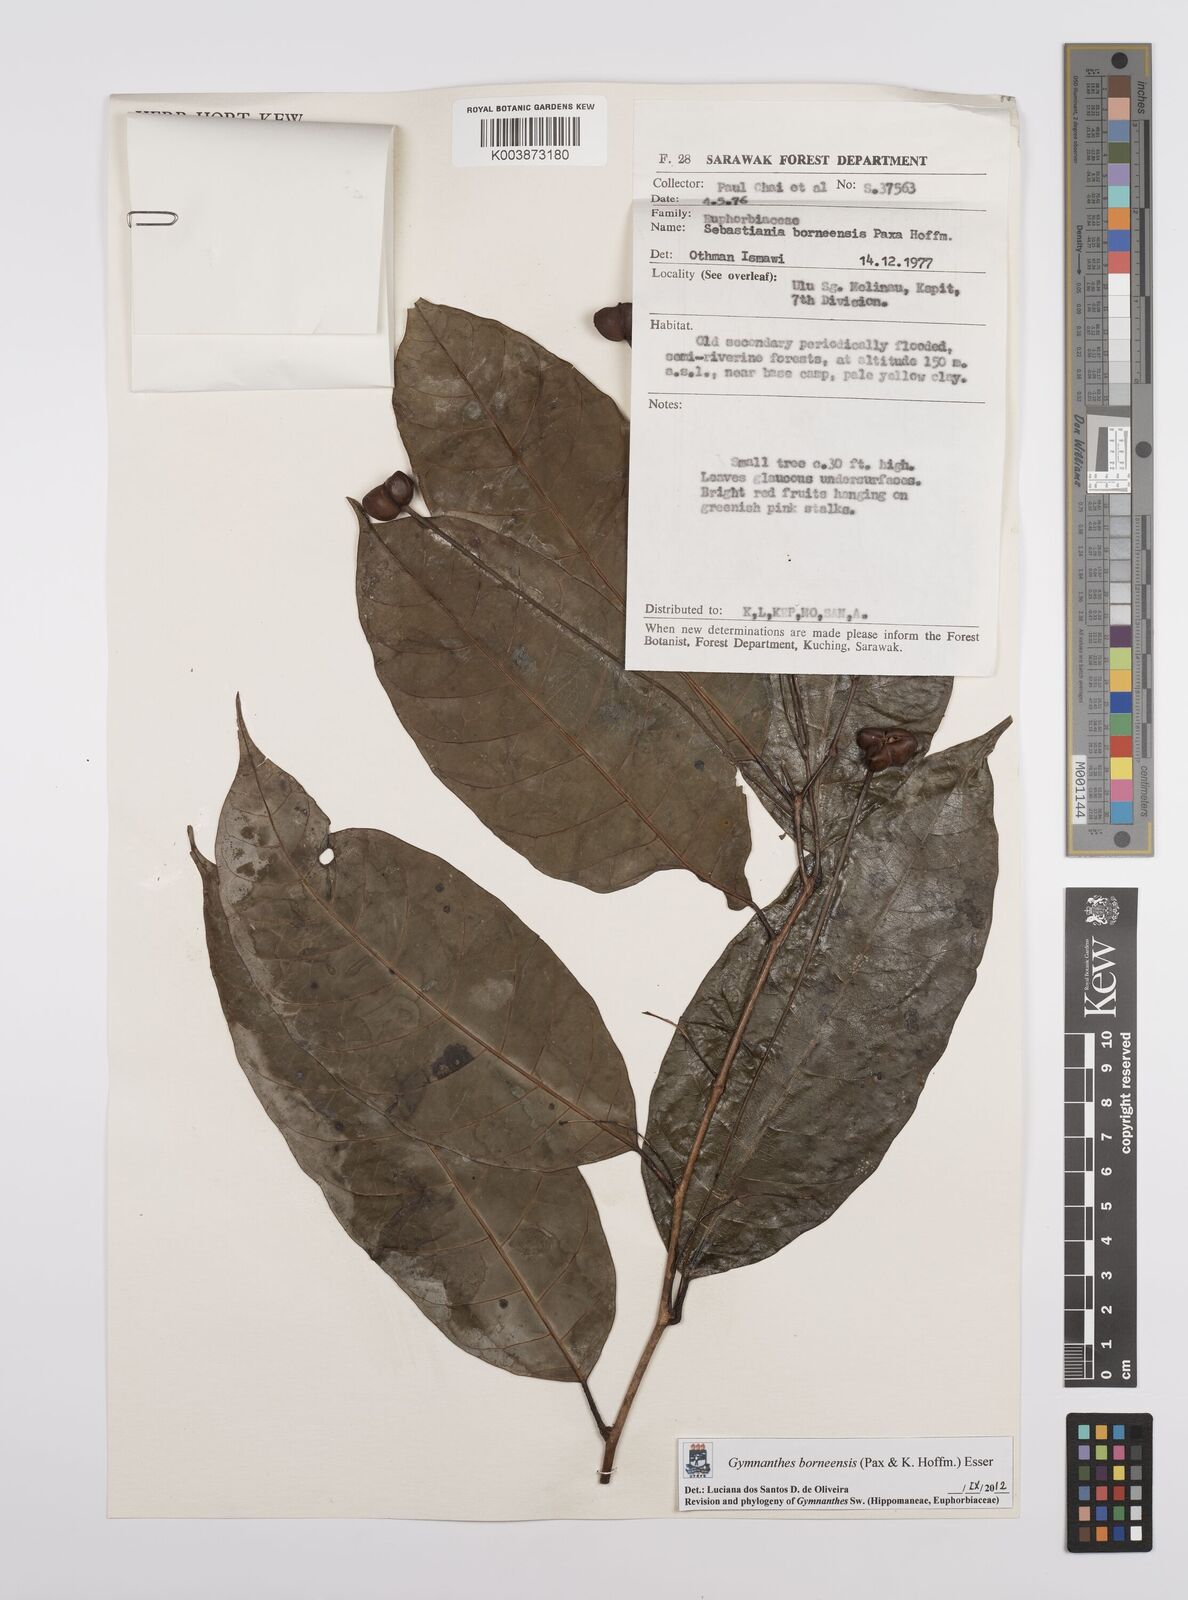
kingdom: Plantae
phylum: Tracheophyta
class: Magnoliopsida
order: Malpighiales
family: Euphorbiaceae
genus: Gymnanthes
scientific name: Gymnanthes borneensis
